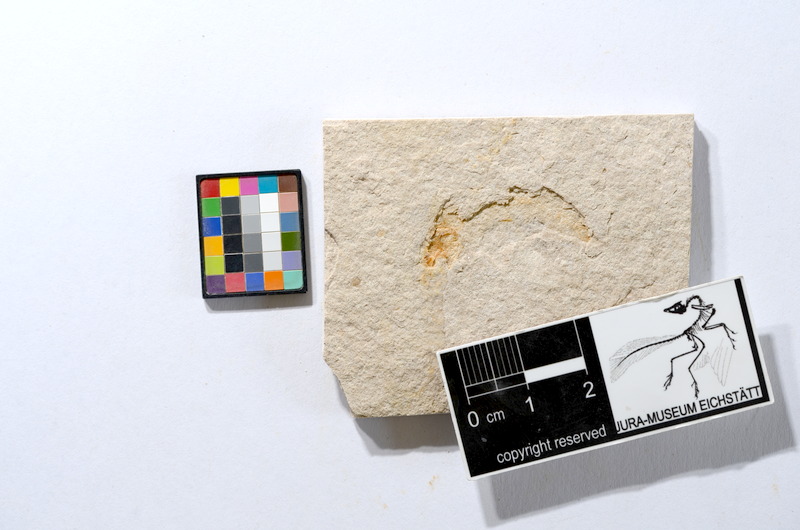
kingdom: Animalia
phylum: Chordata
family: Ascalaboidae
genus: Tharsis
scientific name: Tharsis dubius
